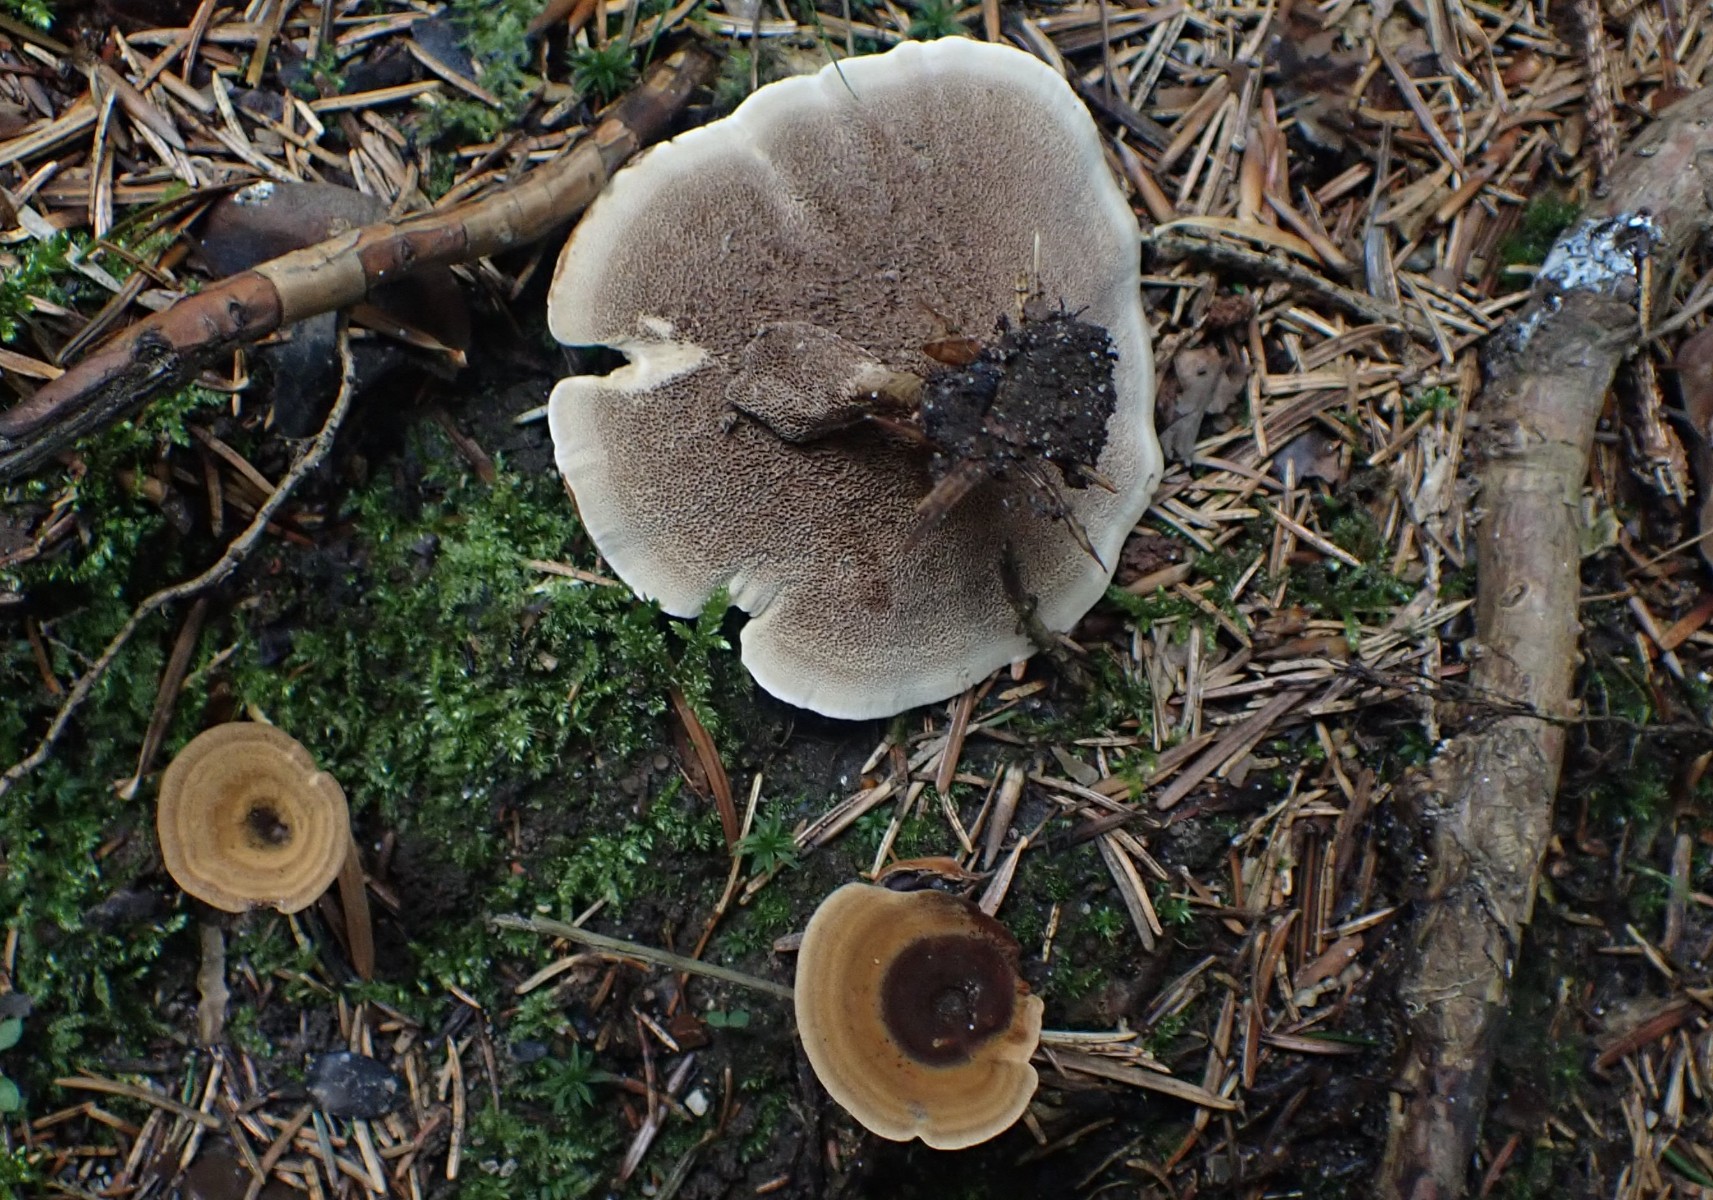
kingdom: Fungi
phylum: Basidiomycota
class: Agaricomycetes
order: Hymenochaetales
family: Hymenochaetaceae
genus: Coltricia
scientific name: Coltricia perennis
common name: almindelig sandporesvamp
